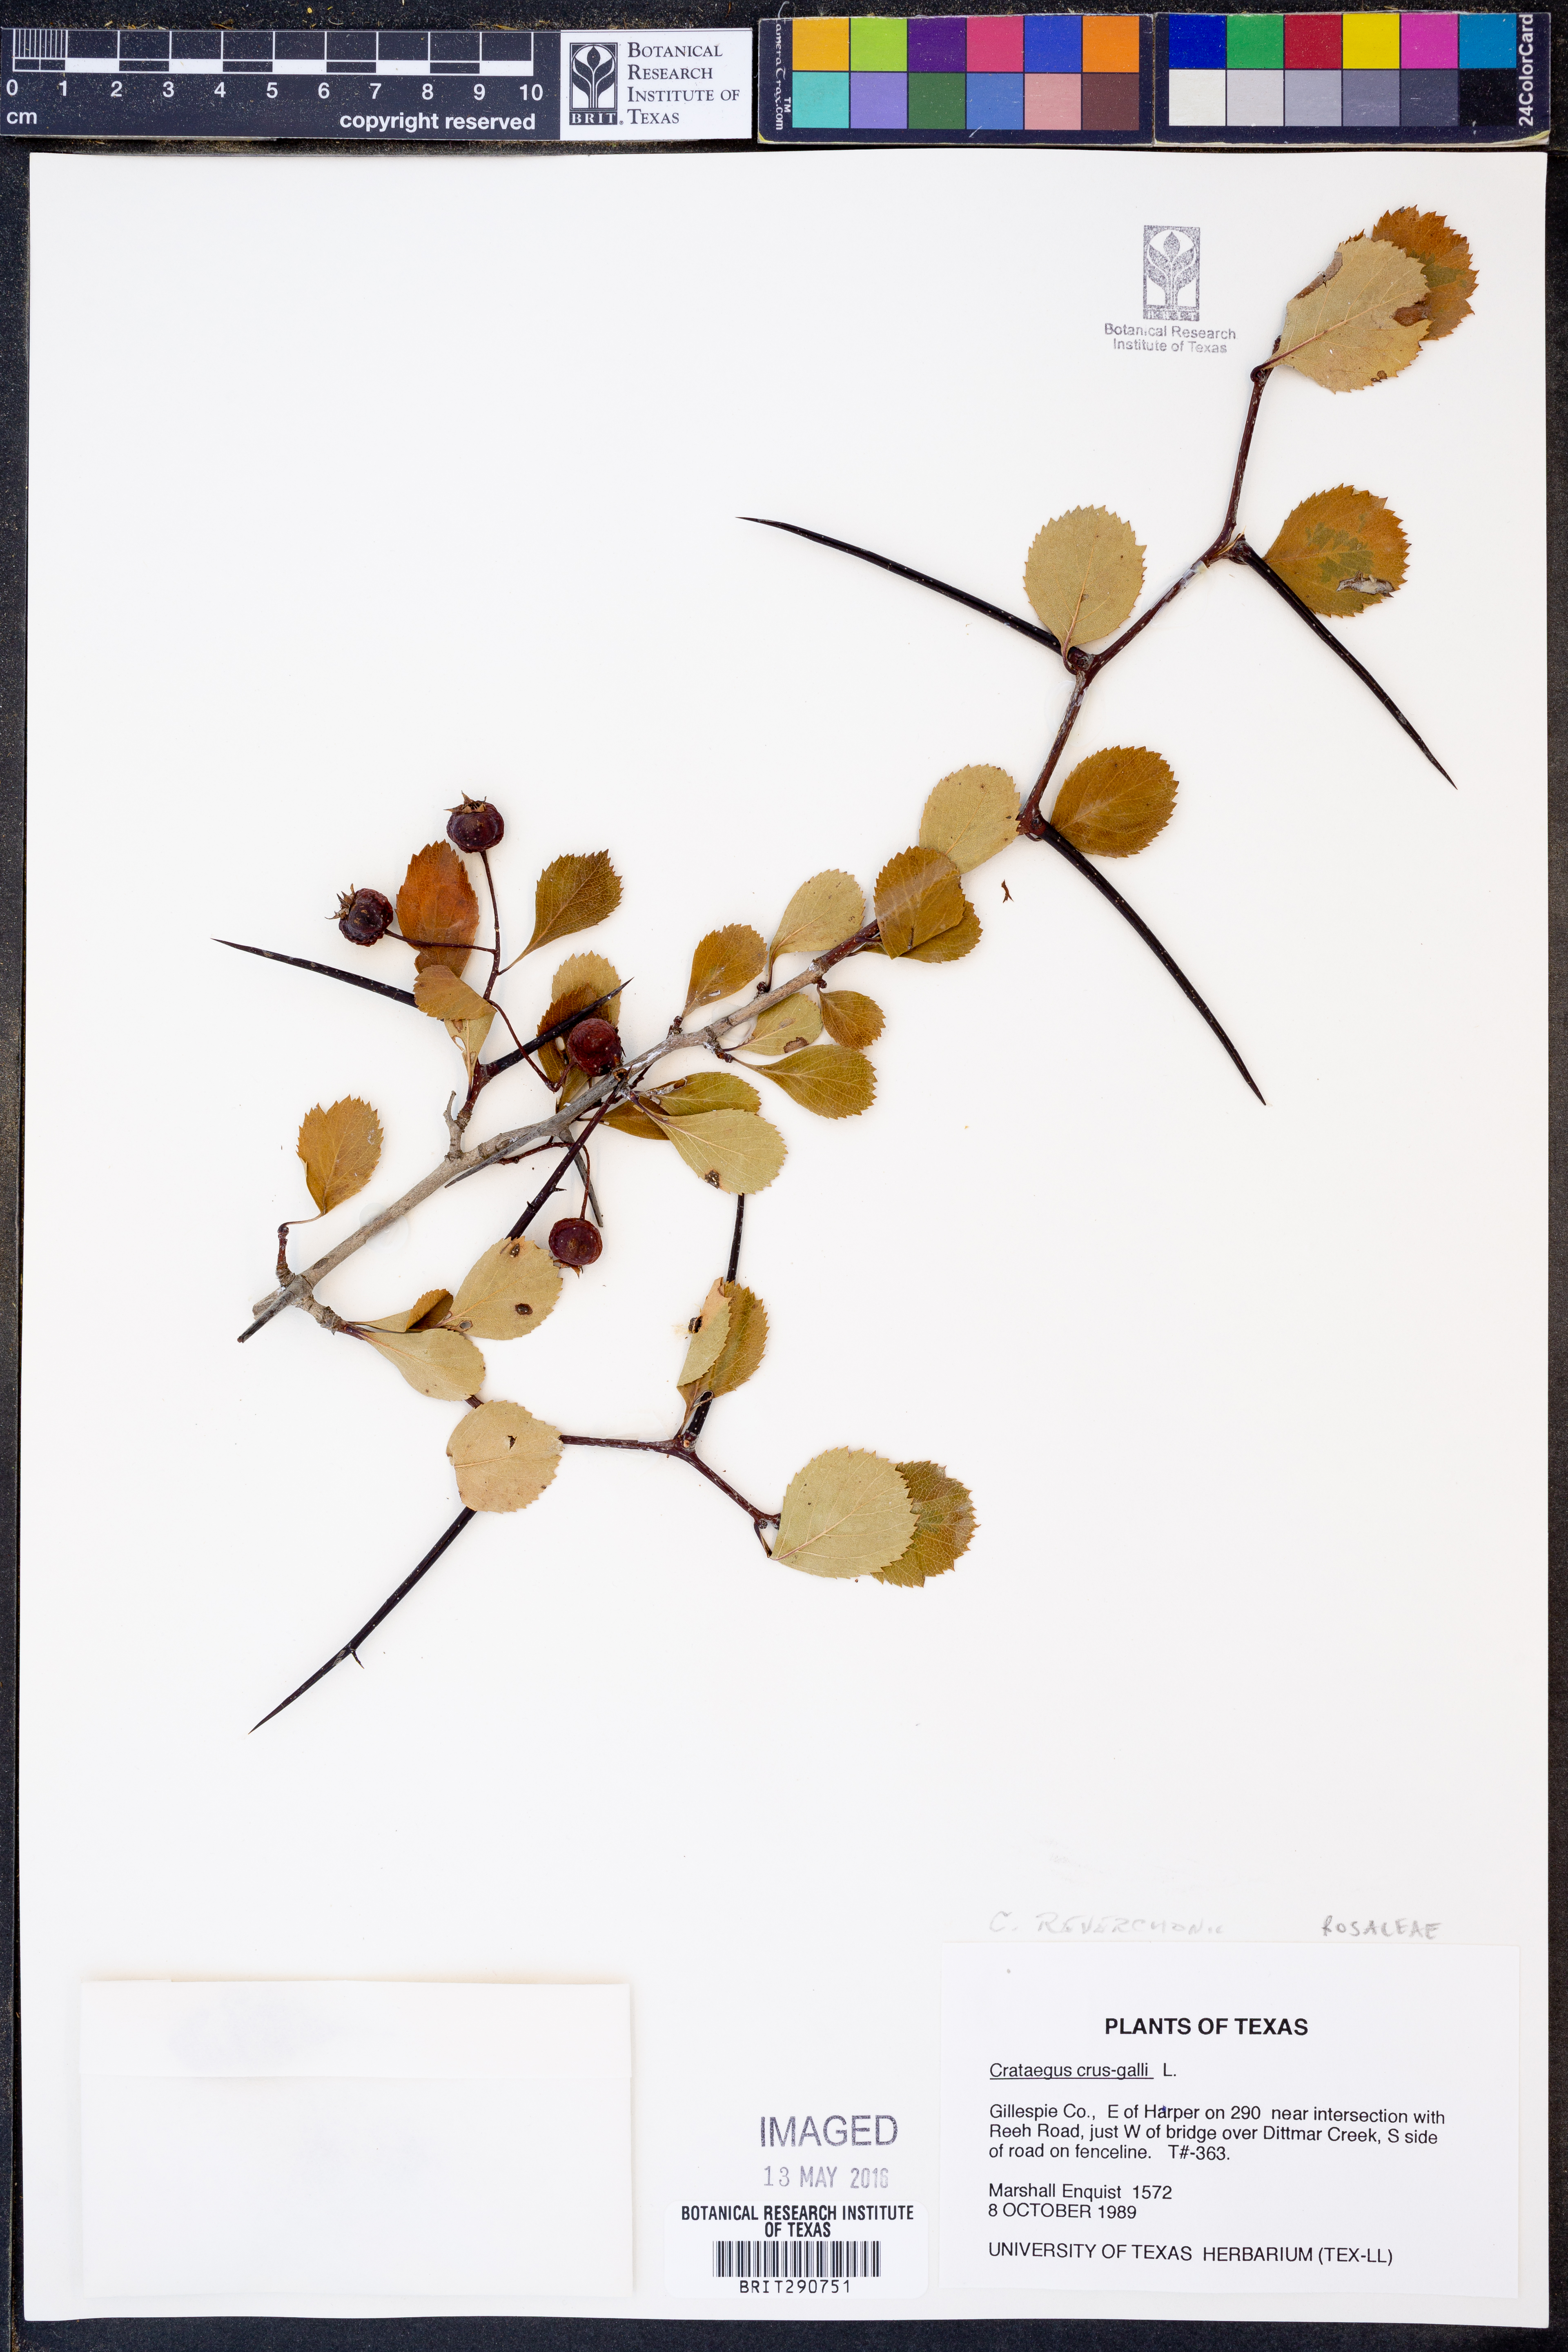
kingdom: Plantae
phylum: Tracheophyta
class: Magnoliopsida
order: Rosales
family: Rosaceae
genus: Crataegus
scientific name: Crataegus reverchonii
